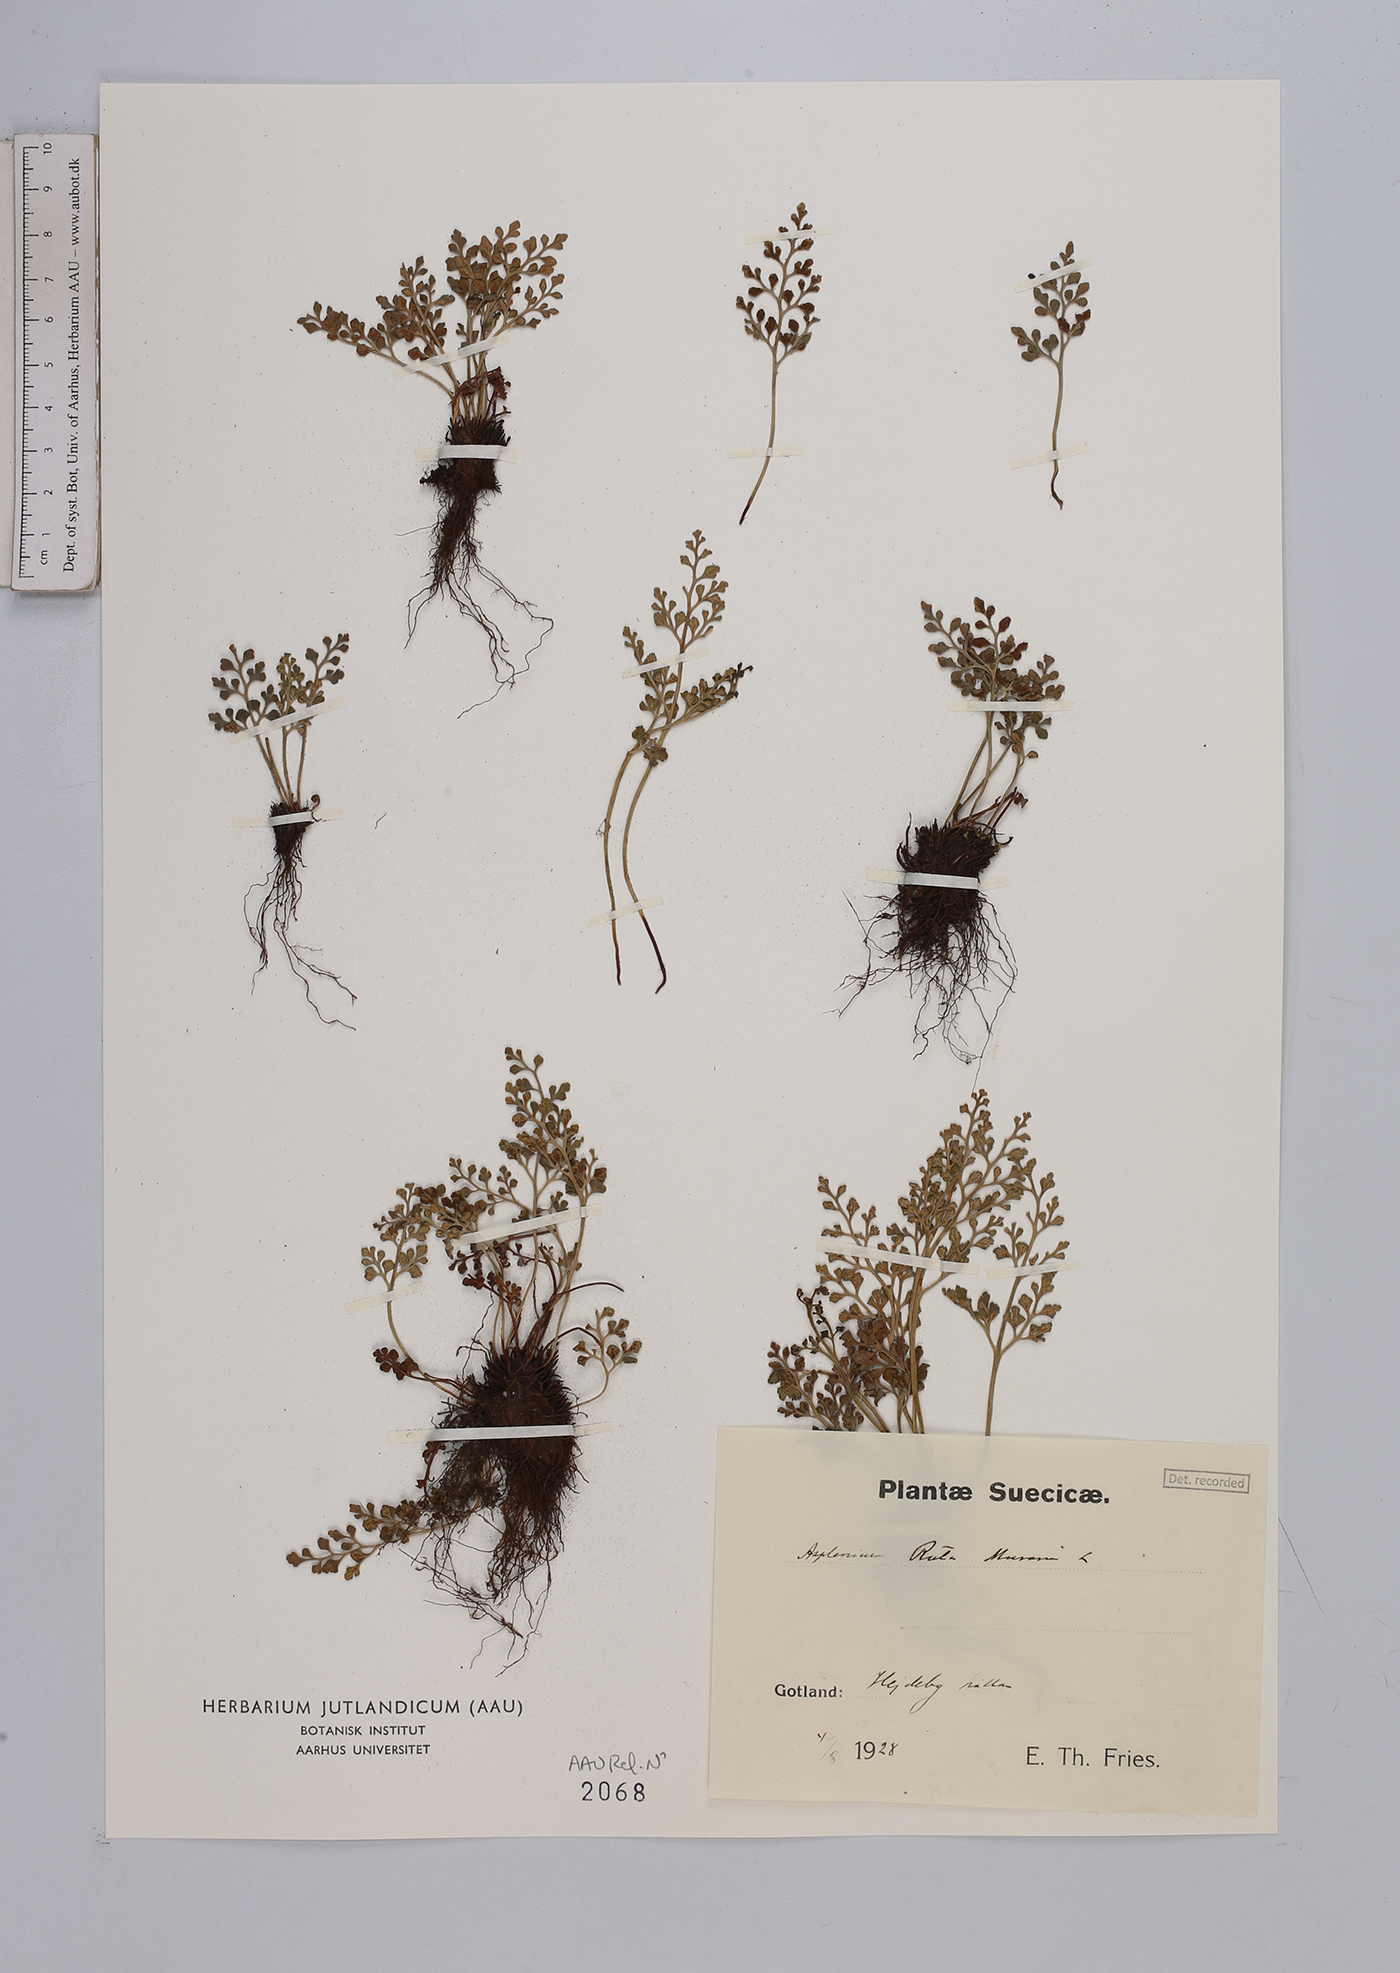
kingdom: Plantae
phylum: Tracheophyta
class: Polypodiopsida
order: Polypodiales
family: Aspleniaceae
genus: Asplenium
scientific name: Asplenium ruta-muraria
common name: Wall-rue
